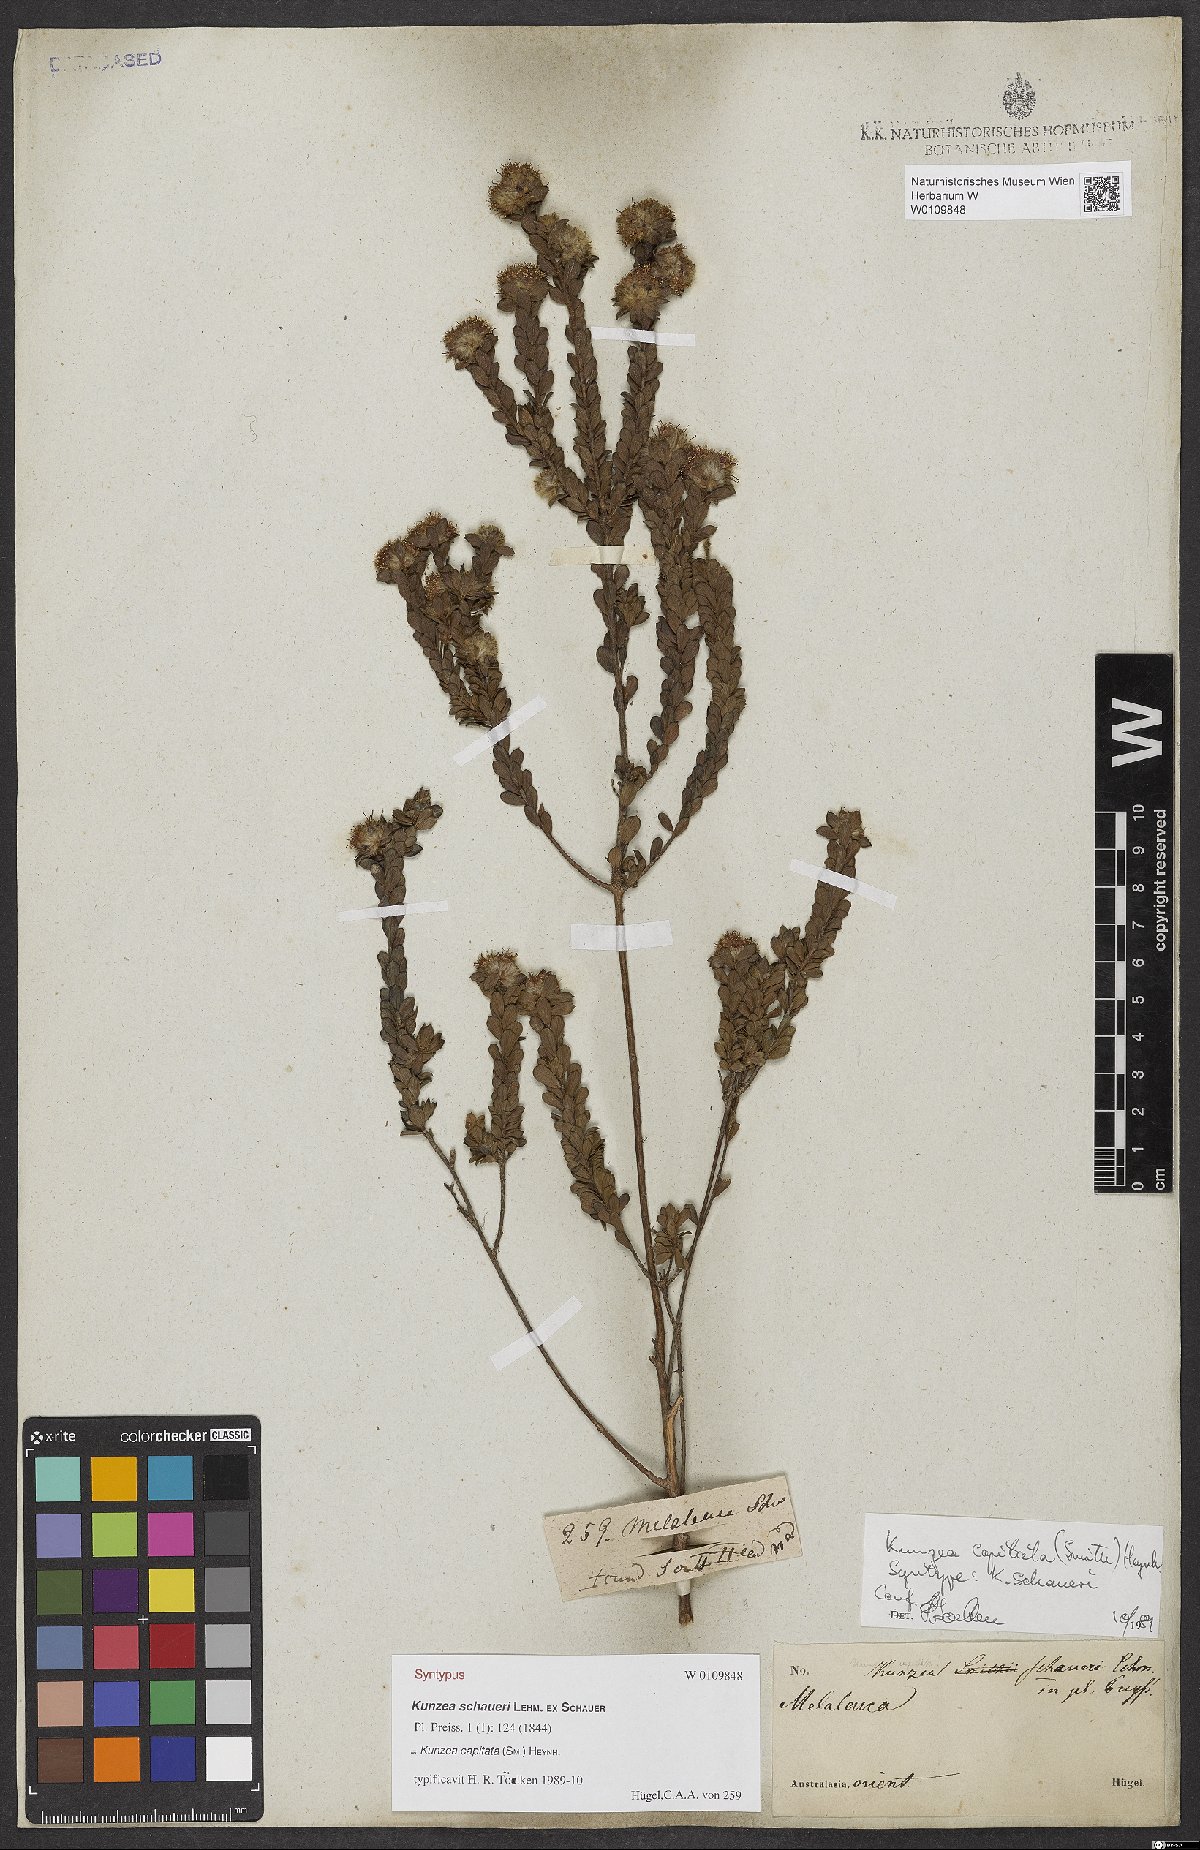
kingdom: Plantae
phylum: Tracheophyta
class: Magnoliopsida
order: Myrtales
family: Myrtaceae
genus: Kunzea
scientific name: Kunzea capitata
